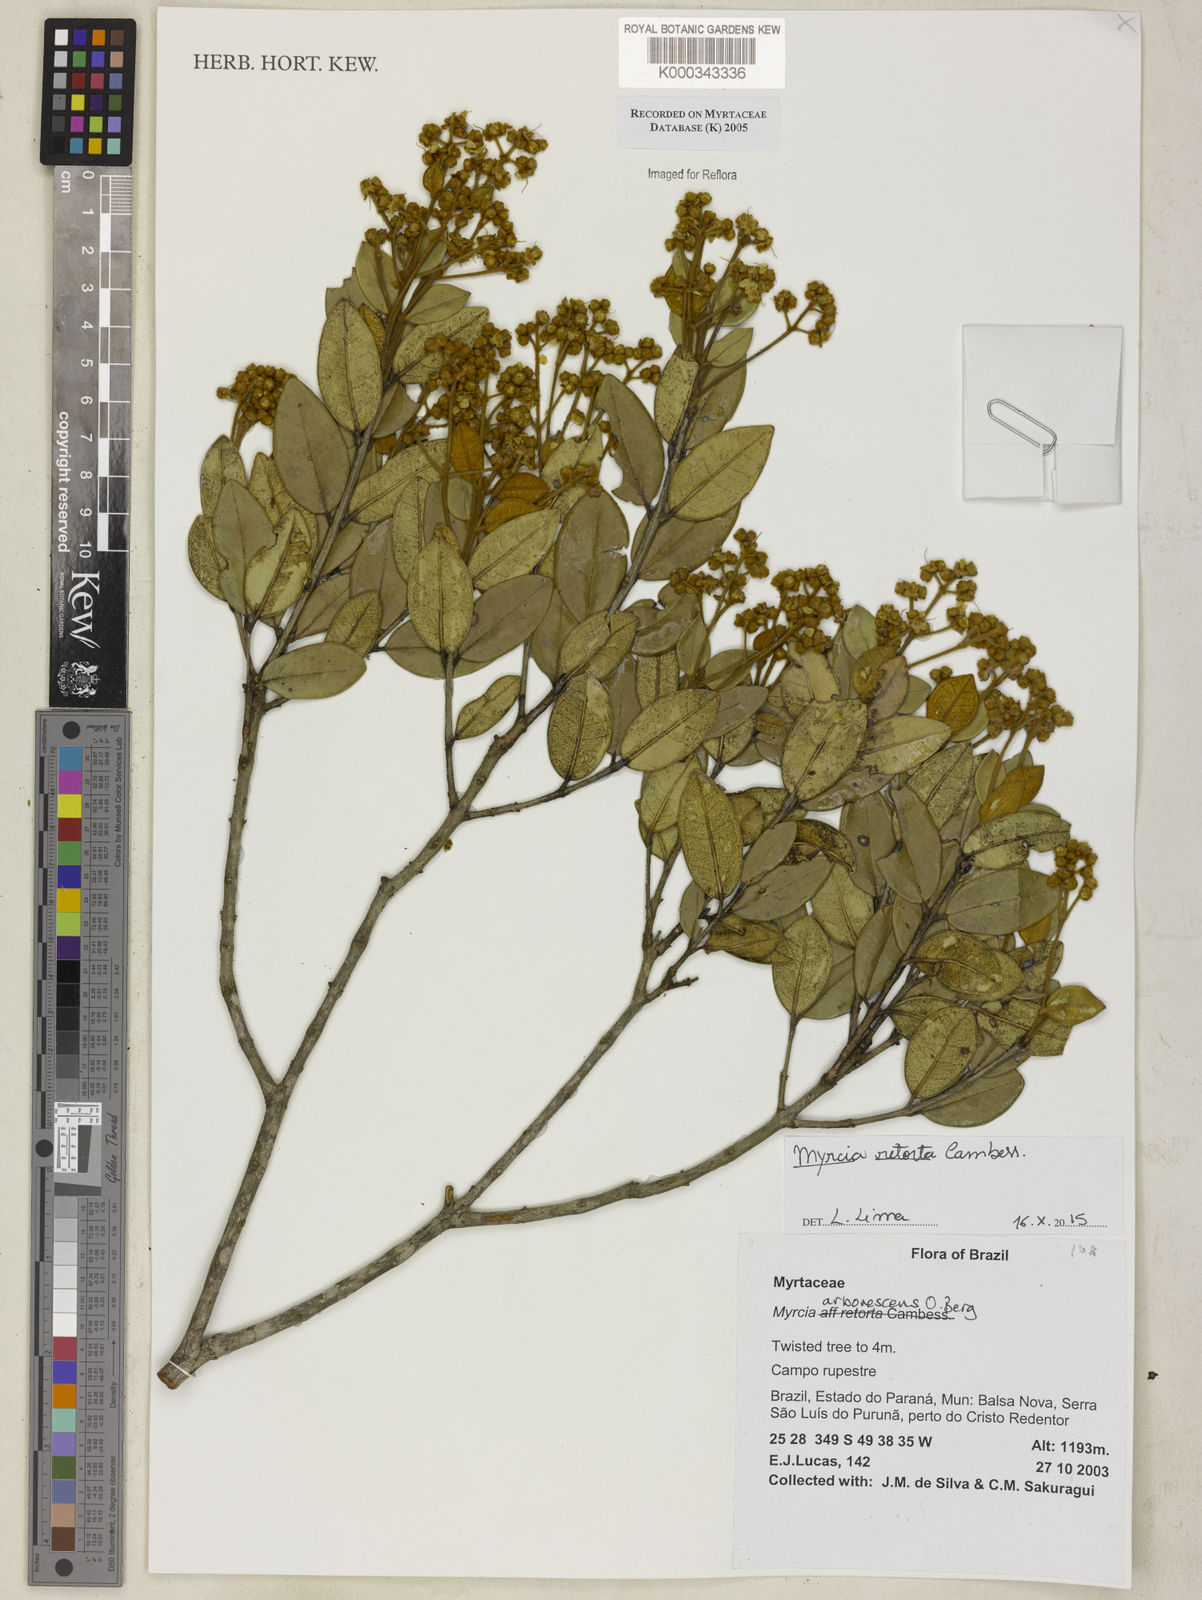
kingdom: Plantae
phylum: Tracheophyta
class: Magnoliopsida
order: Myrtales
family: Myrtaceae
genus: Myrcia
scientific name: Myrcia retorta
